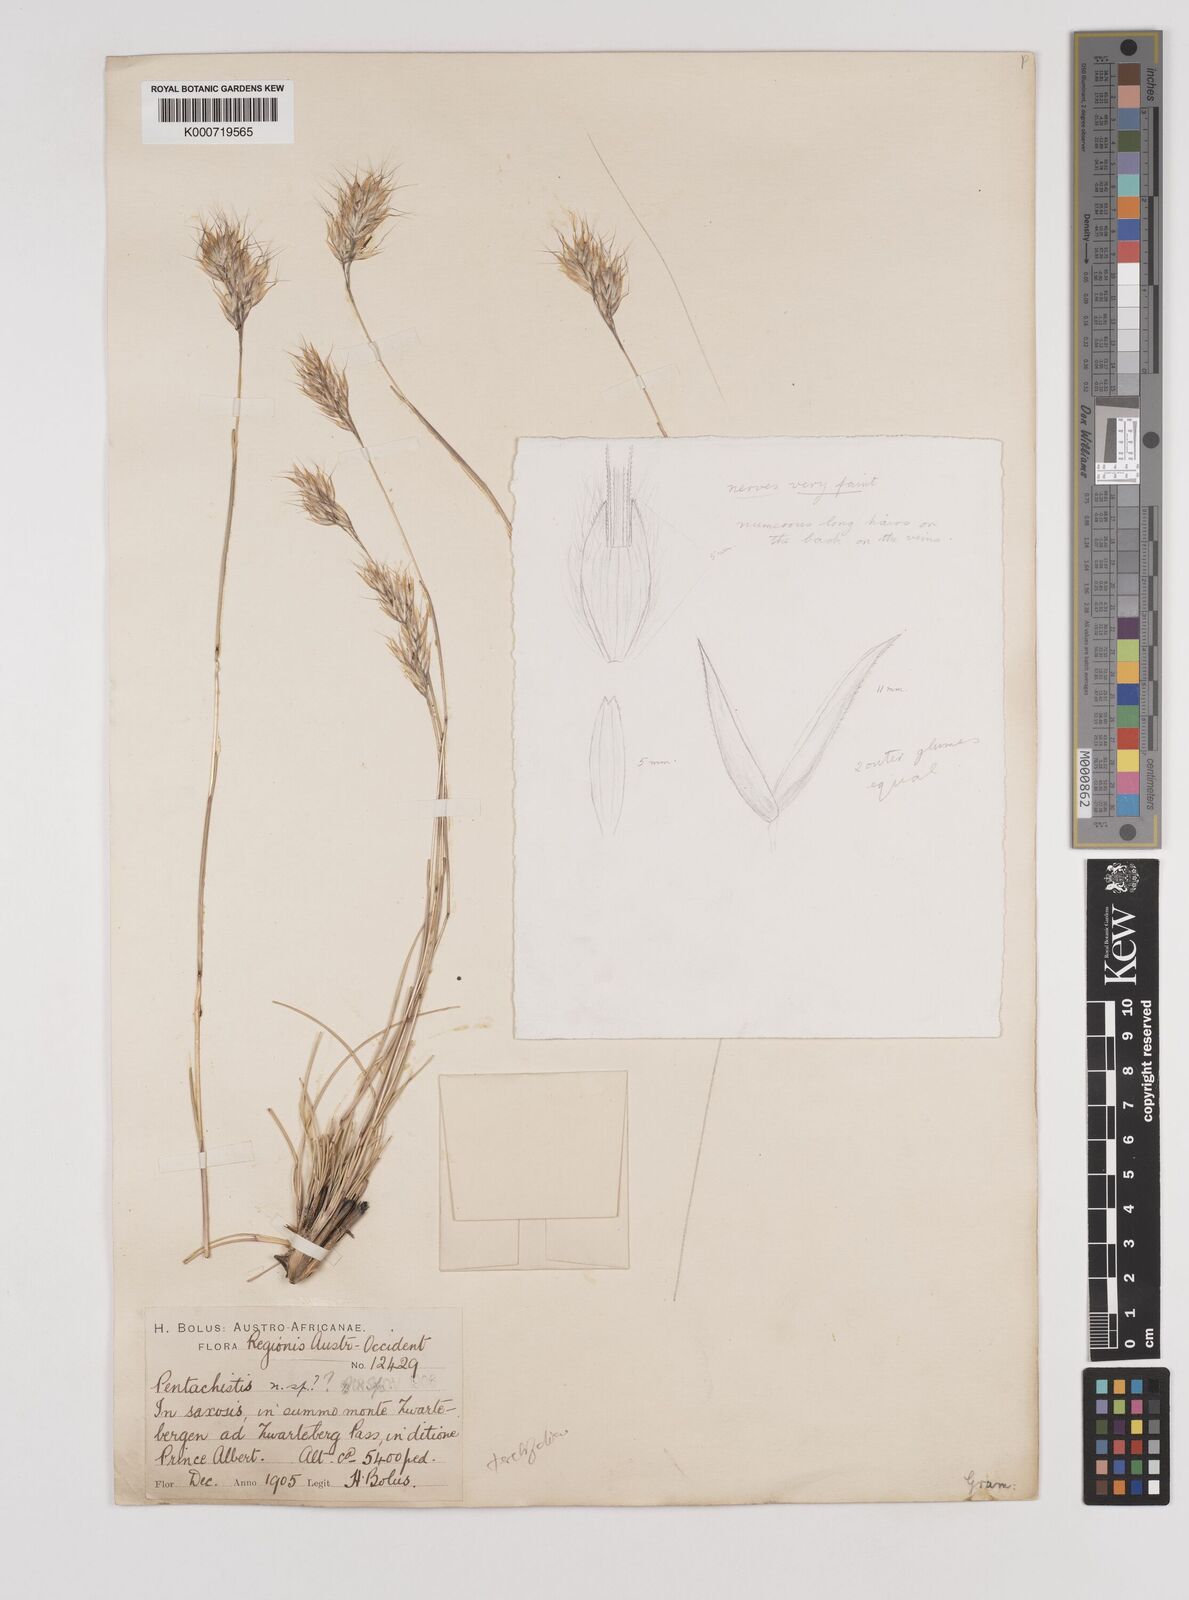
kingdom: Plantae
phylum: Tracheophyta
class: Liliopsida
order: Poales
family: Poaceae
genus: Pentameris
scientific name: Pentameris pyrophila
